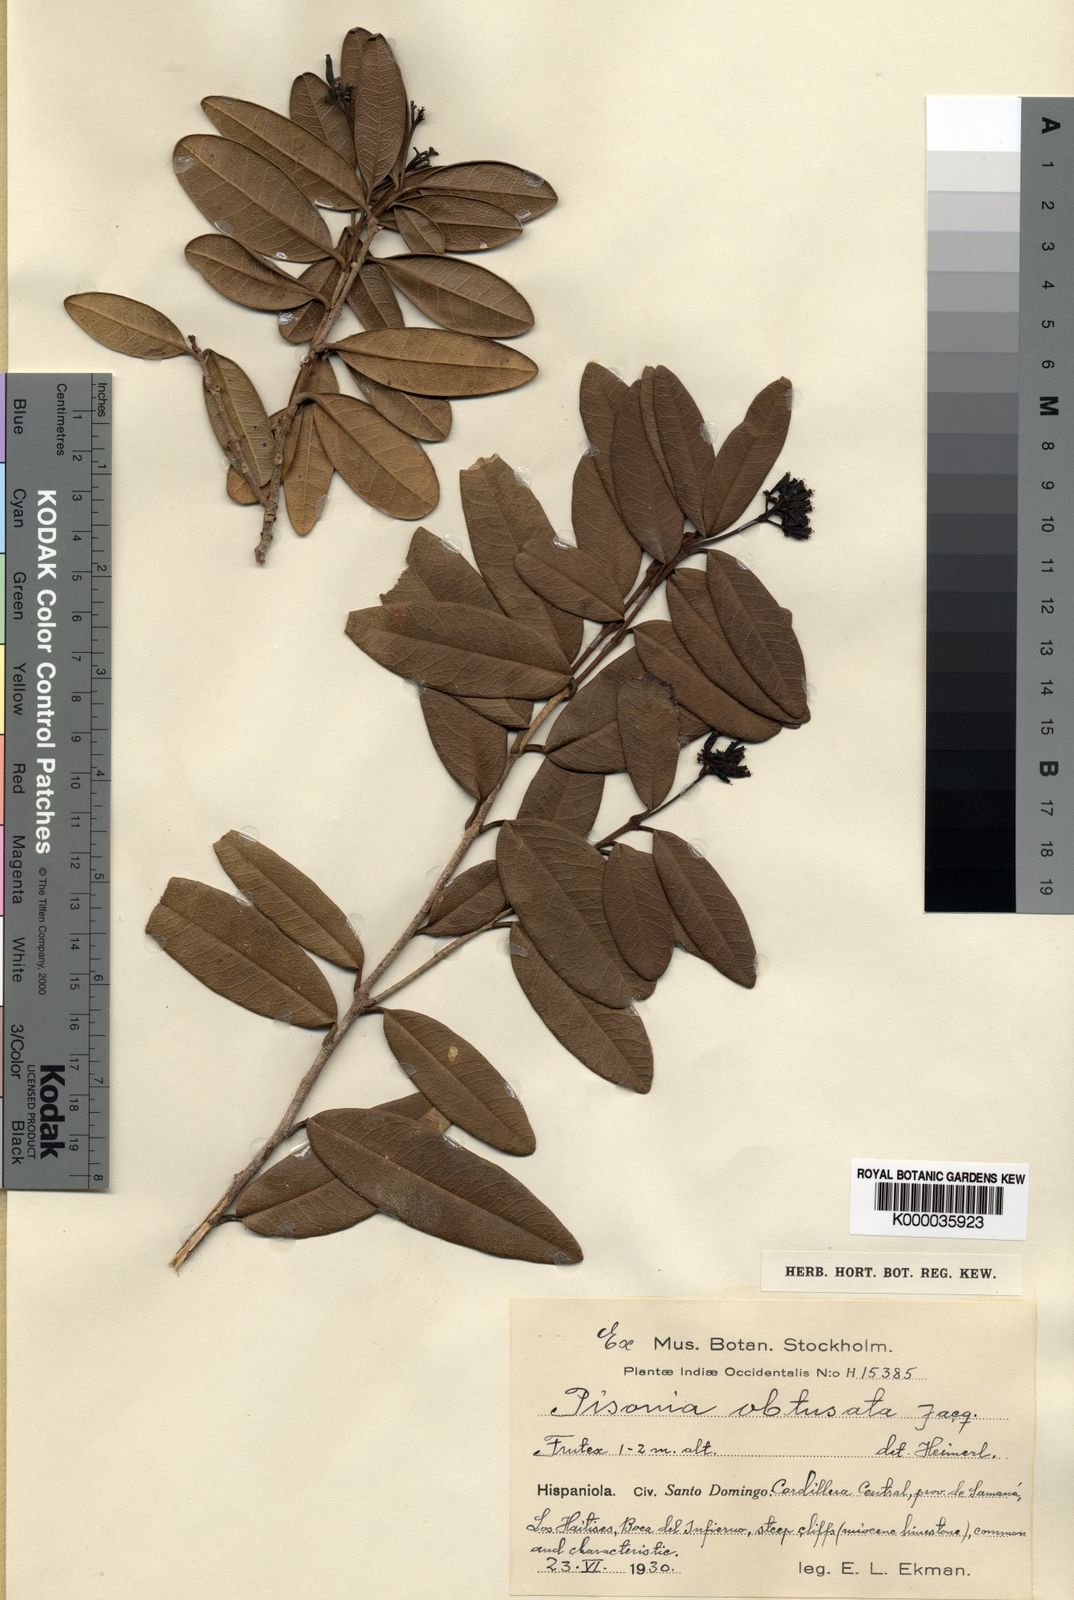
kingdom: Plantae
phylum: Tracheophyta
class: Magnoliopsida
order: Caryophyllales
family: Nyctaginaceae
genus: Guapira
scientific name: Guapira obtusata
